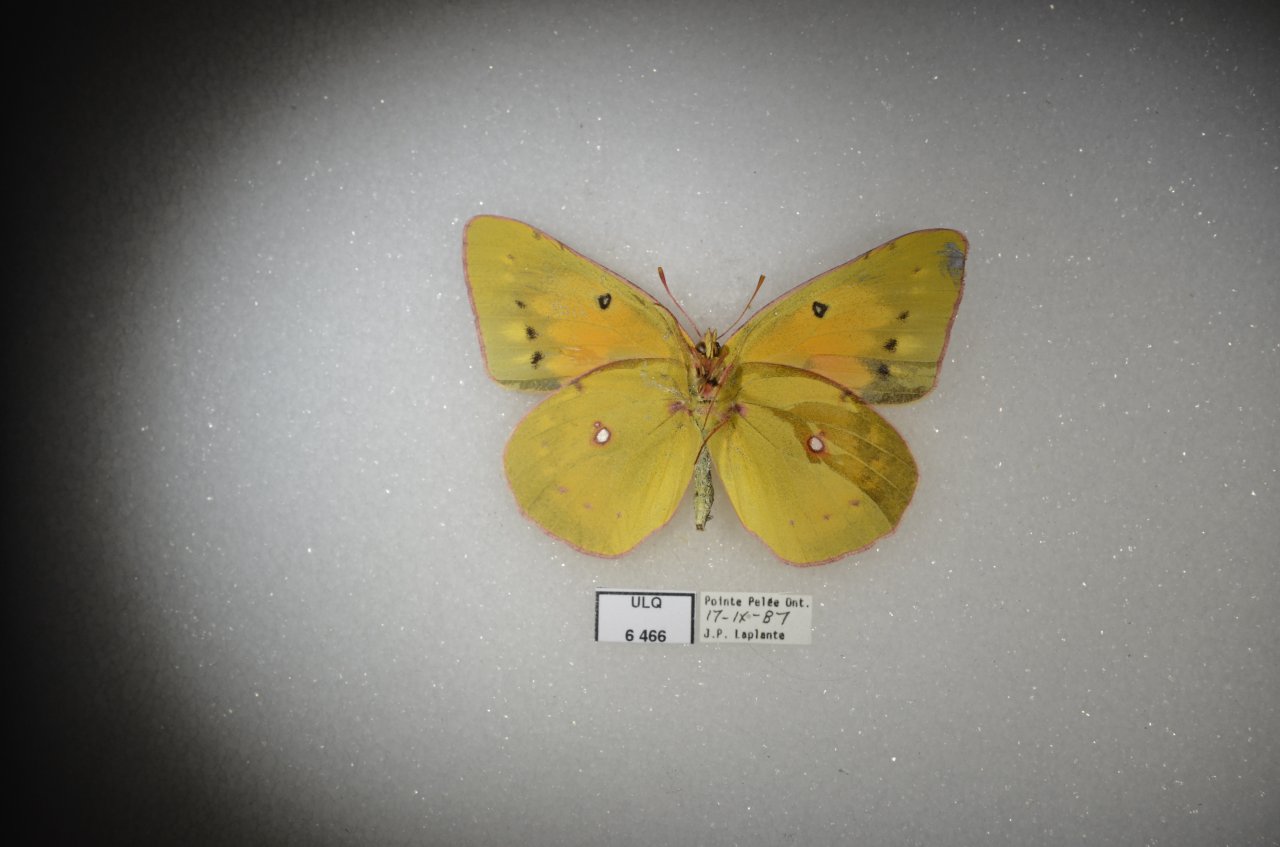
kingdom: Animalia
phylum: Arthropoda
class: Insecta
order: Lepidoptera
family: Pieridae
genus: Colias
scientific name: Colias eurytheme
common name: Orange Sulphur
